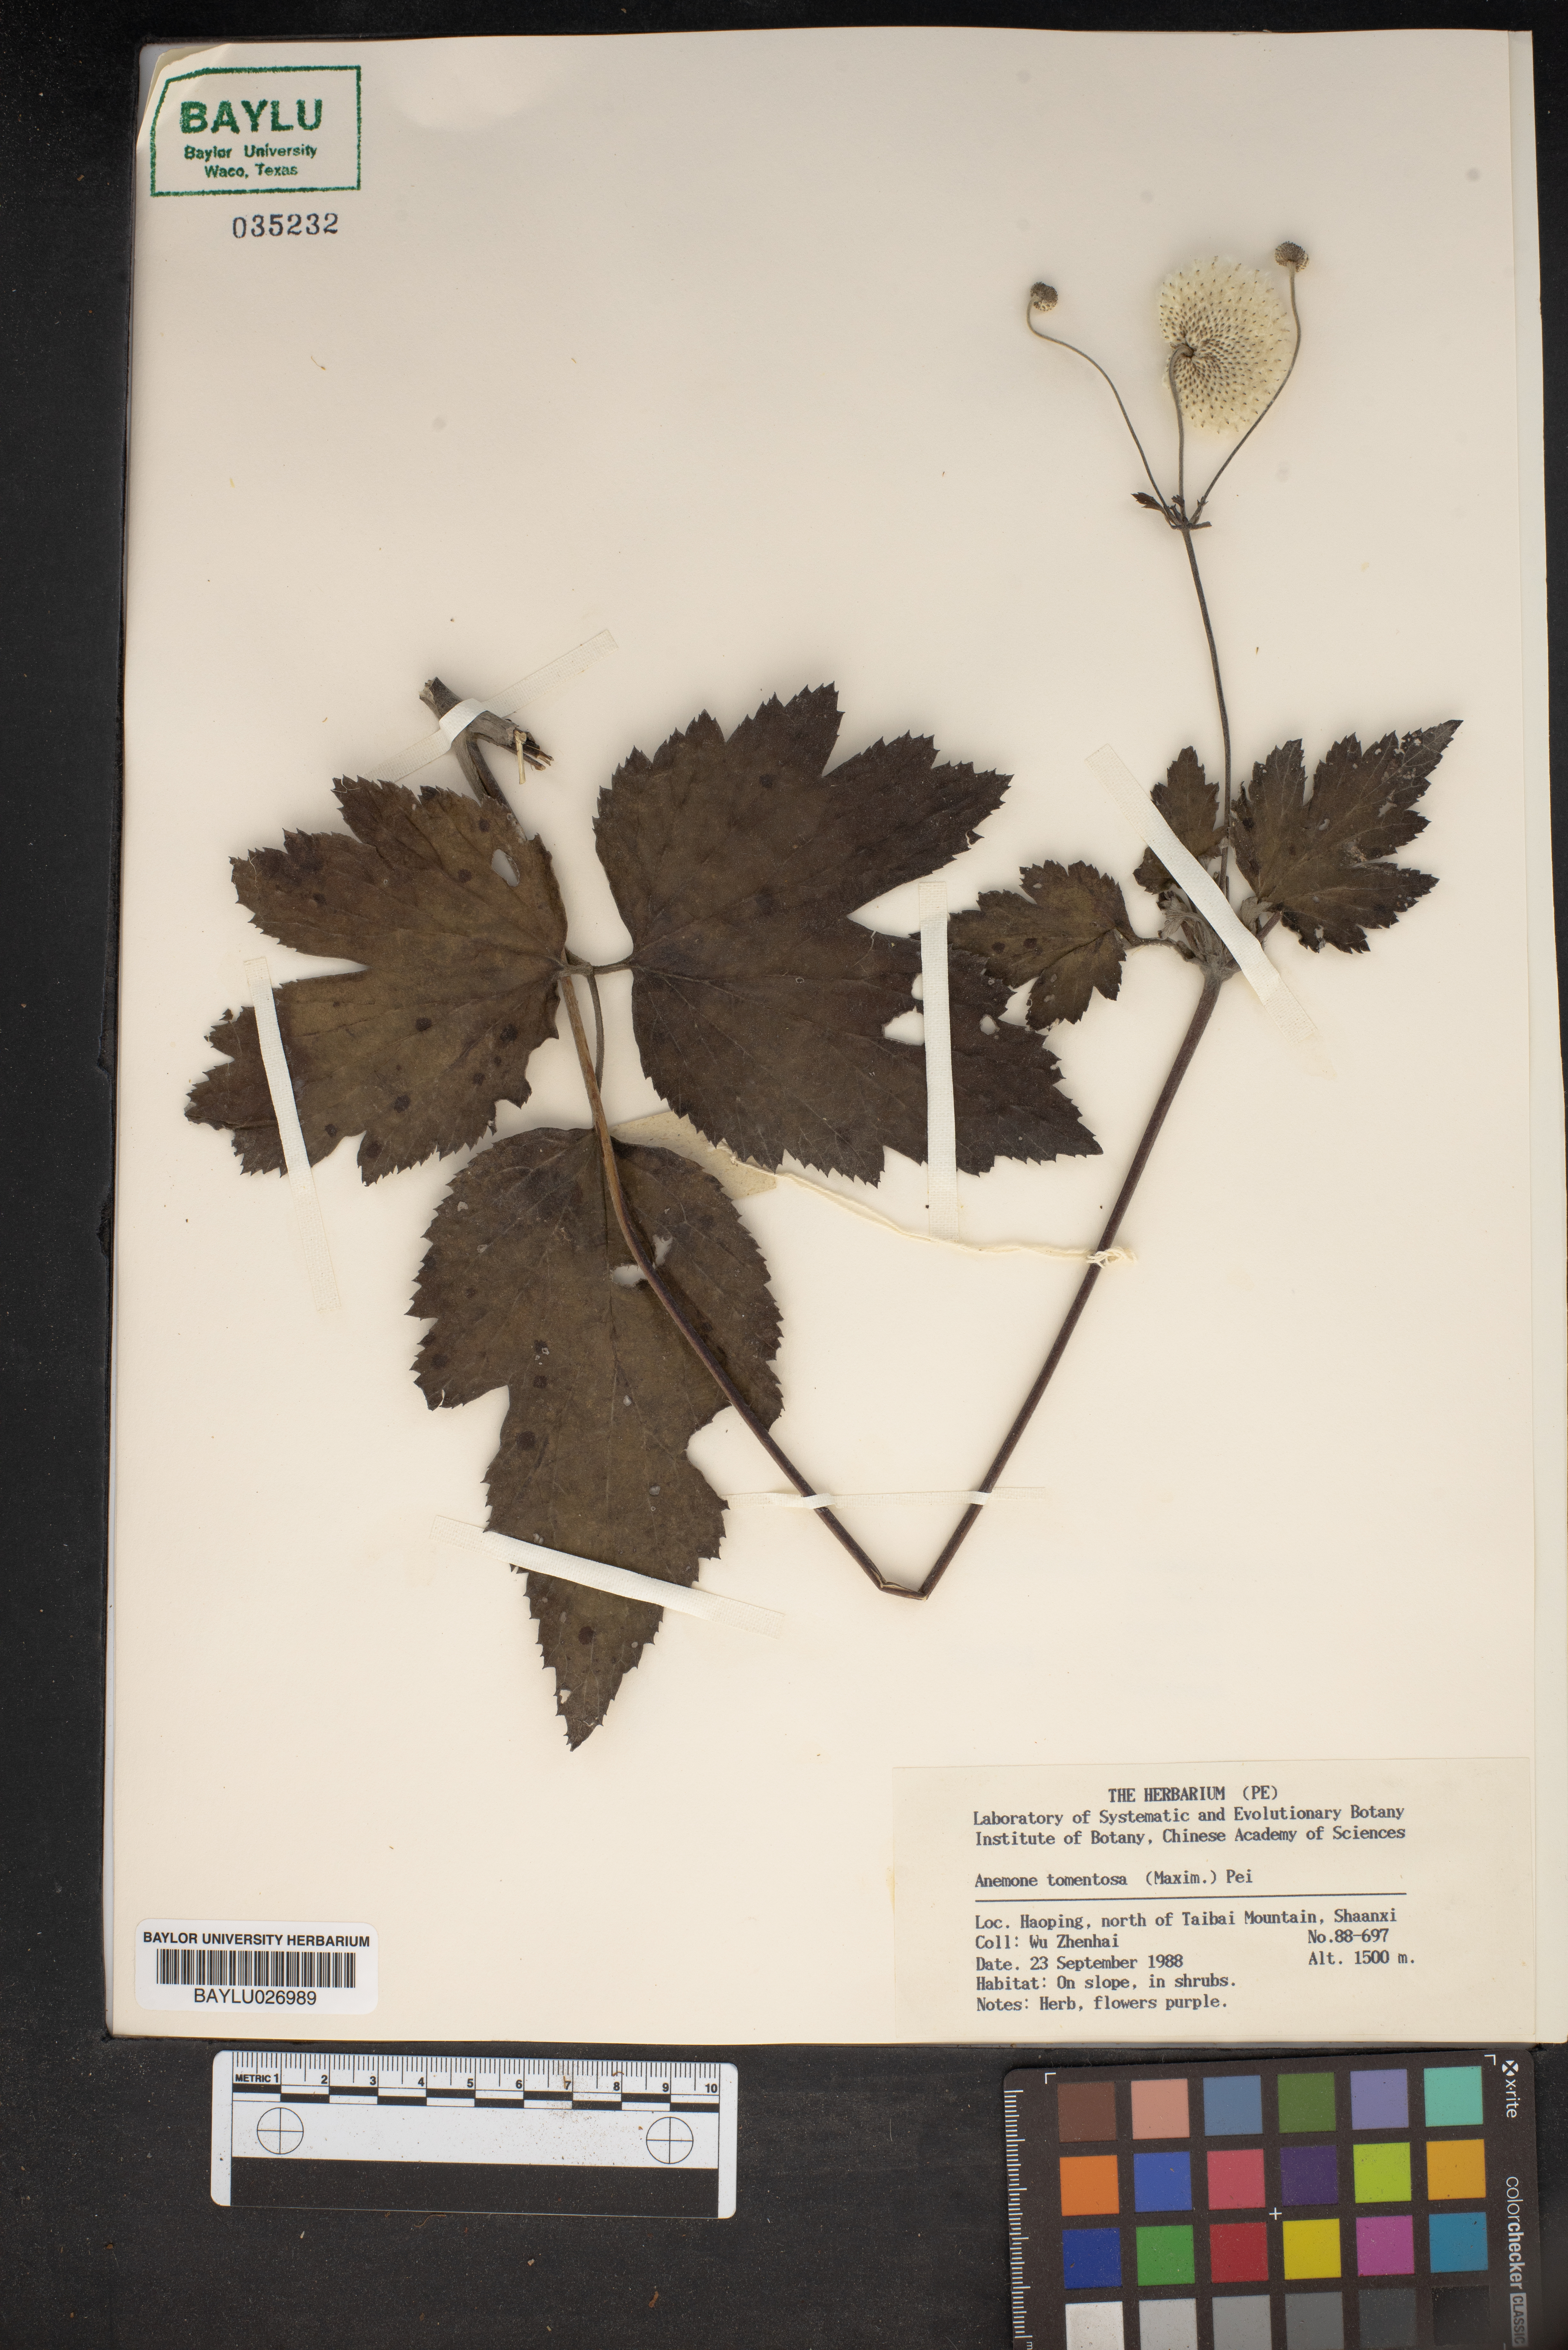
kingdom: Plantae
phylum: Tracheophyta
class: Magnoliopsida
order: Ranunculales
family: Ranunculaceae
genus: Eriocapitella
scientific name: Eriocapitella tomentosa
